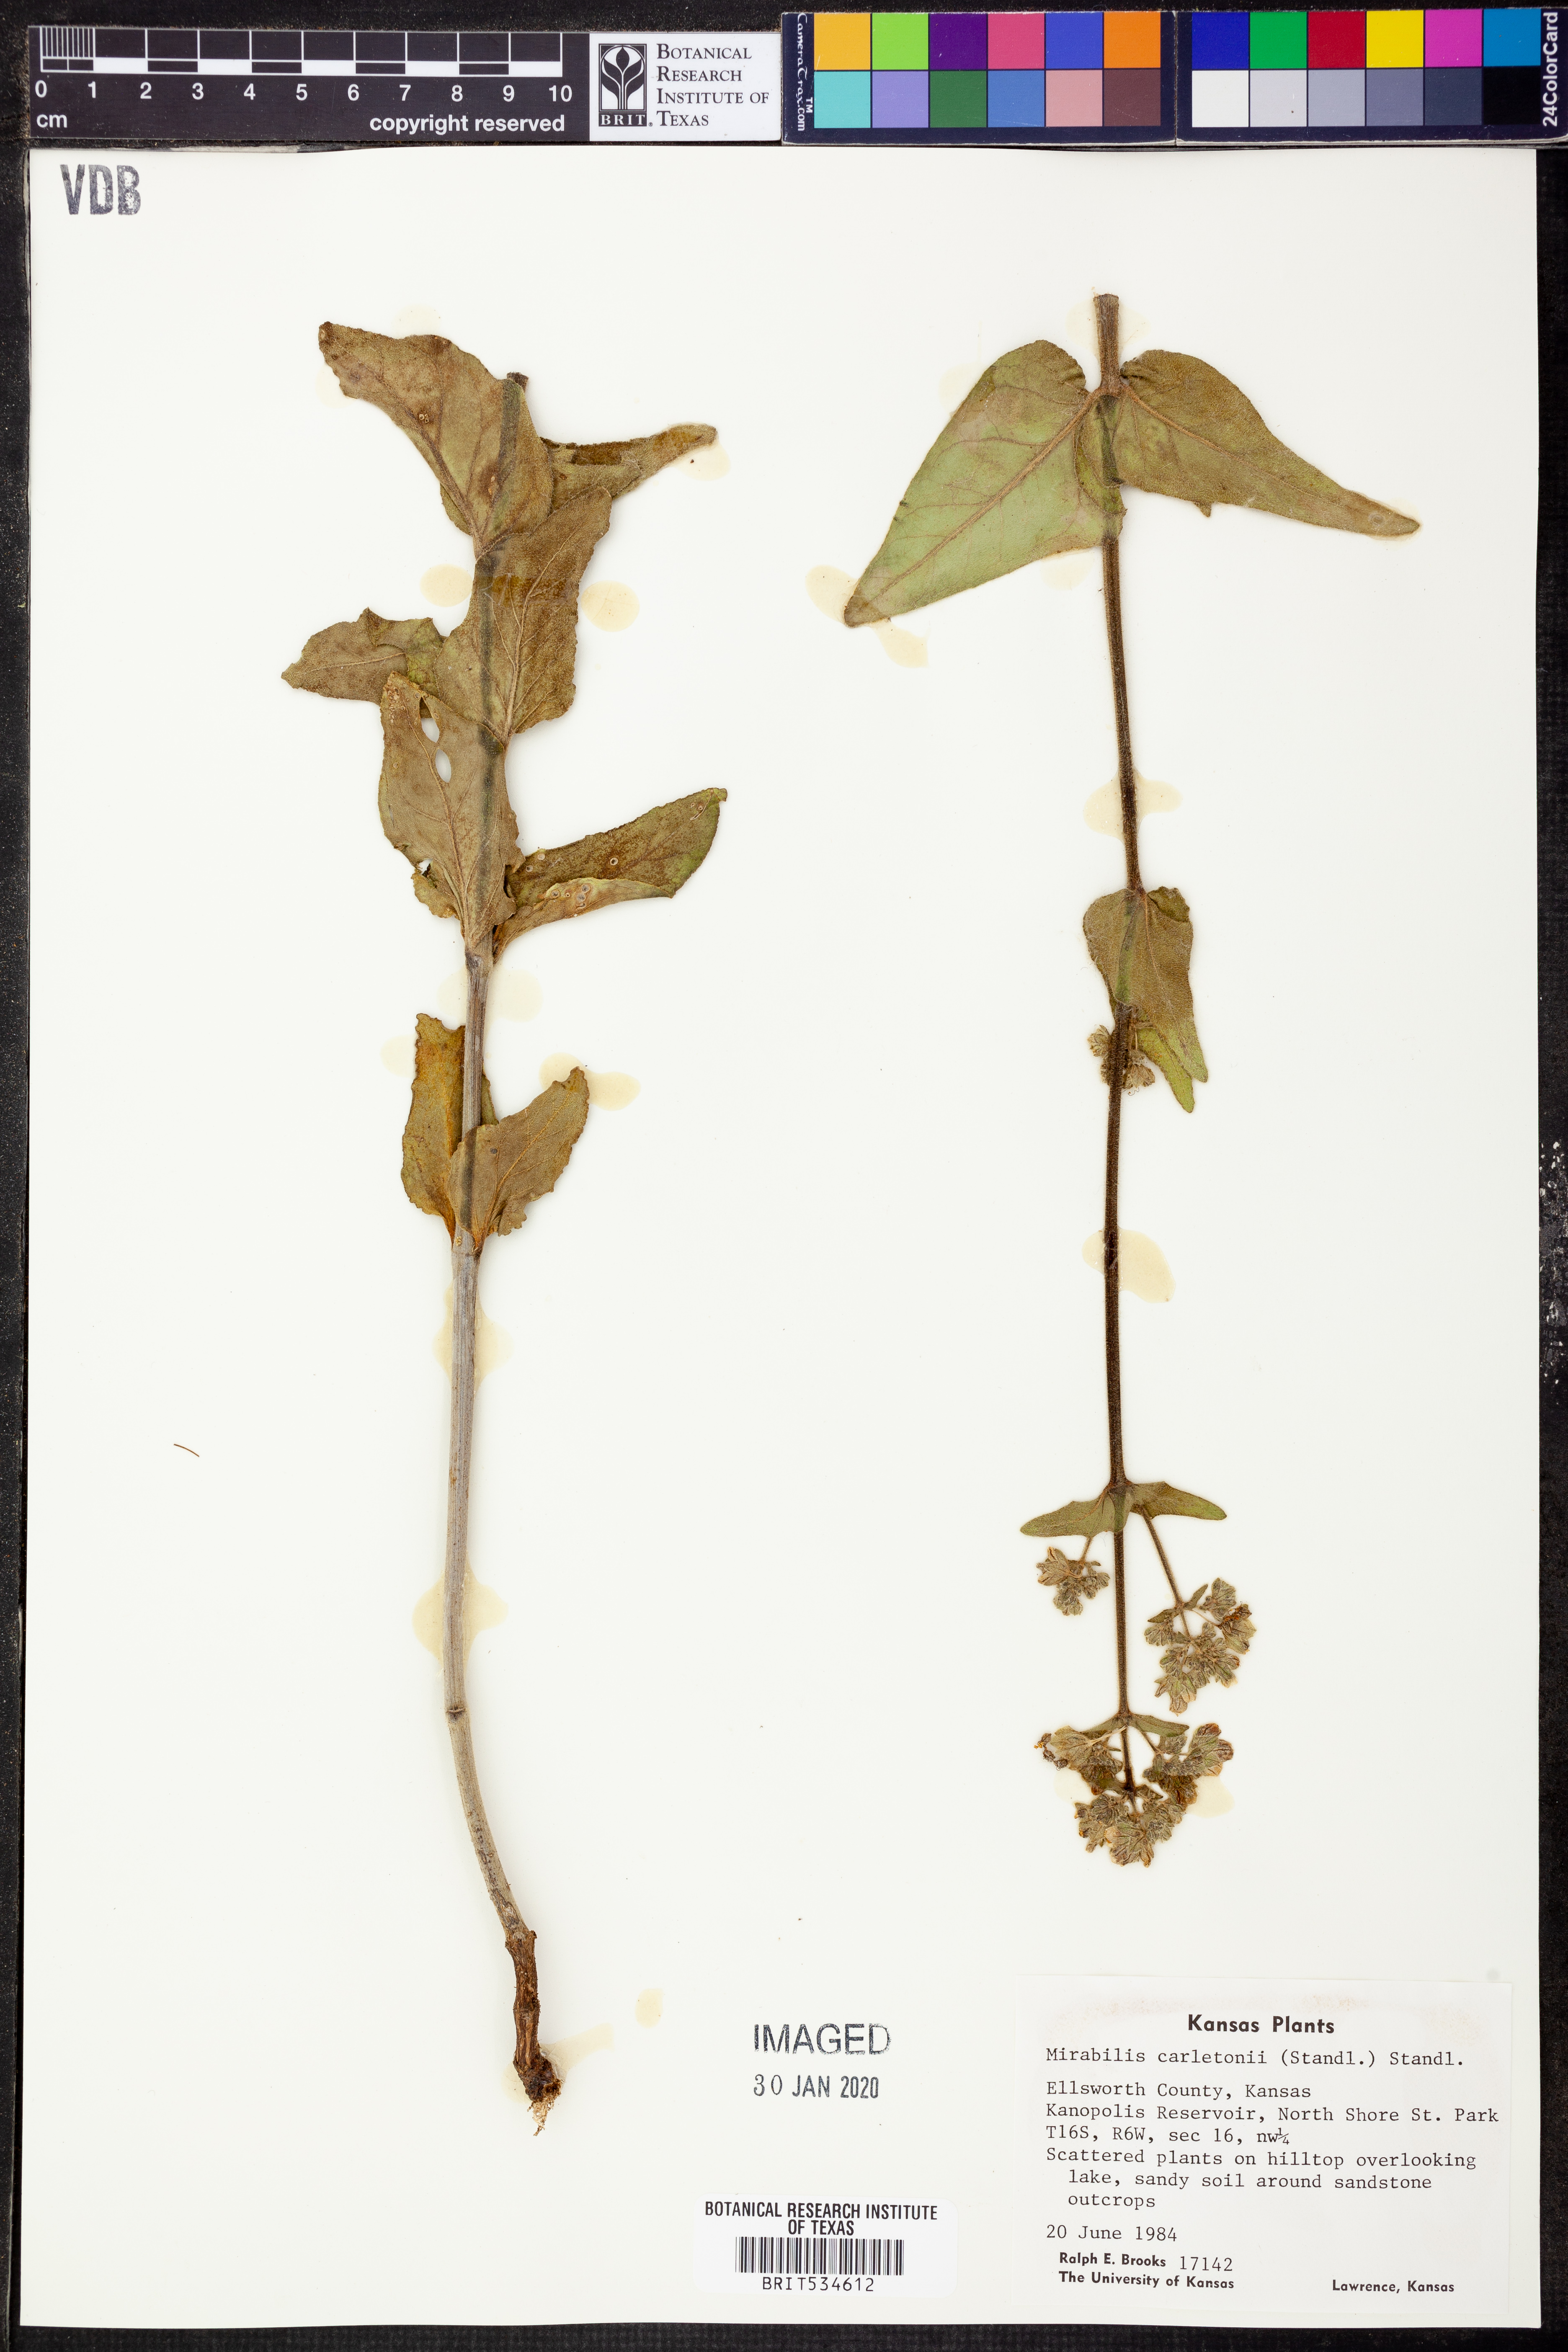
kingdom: Plantae
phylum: Tracheophyta
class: Magnoliopsida
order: Caryophyllales
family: Nyctaginaceae
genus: Mirabilis
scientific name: Mirabilis glabra
